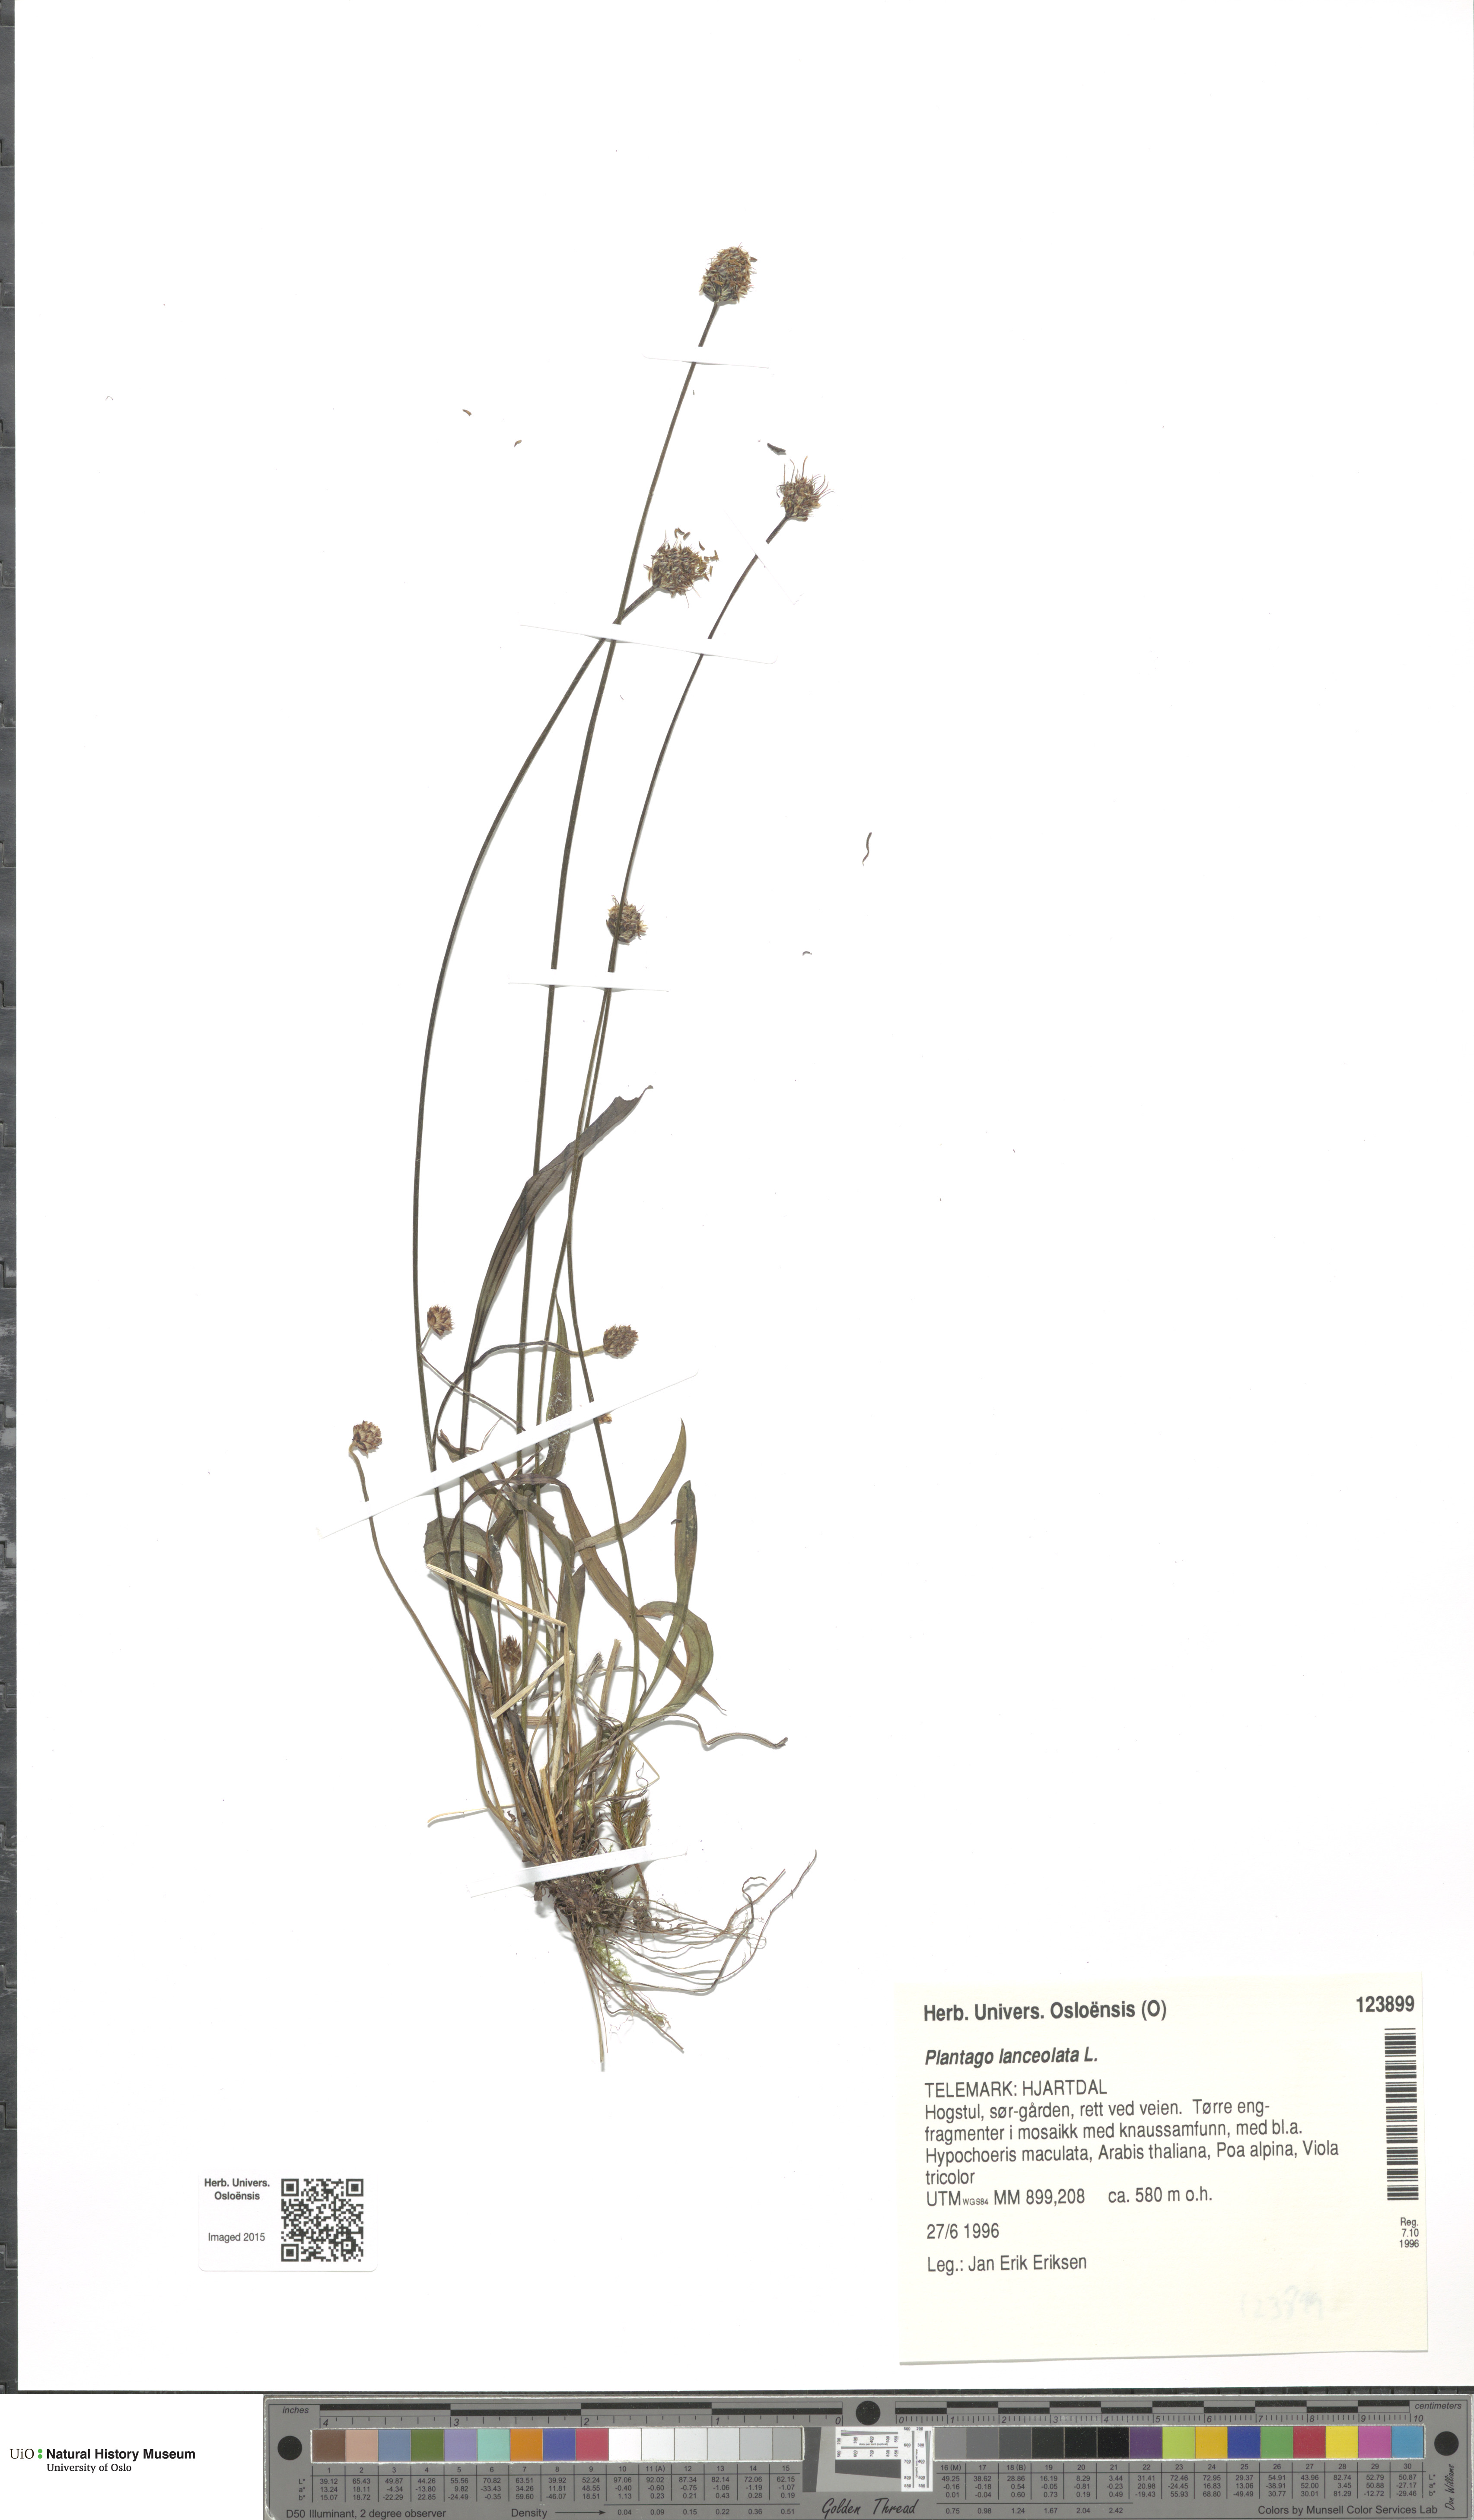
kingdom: Plantae
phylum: Tracheophyta
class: Magnoliopsida
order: Lamiales
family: Plantaginaceae
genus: Plantago
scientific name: Plantago lanceolata
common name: Ribwort plantain
